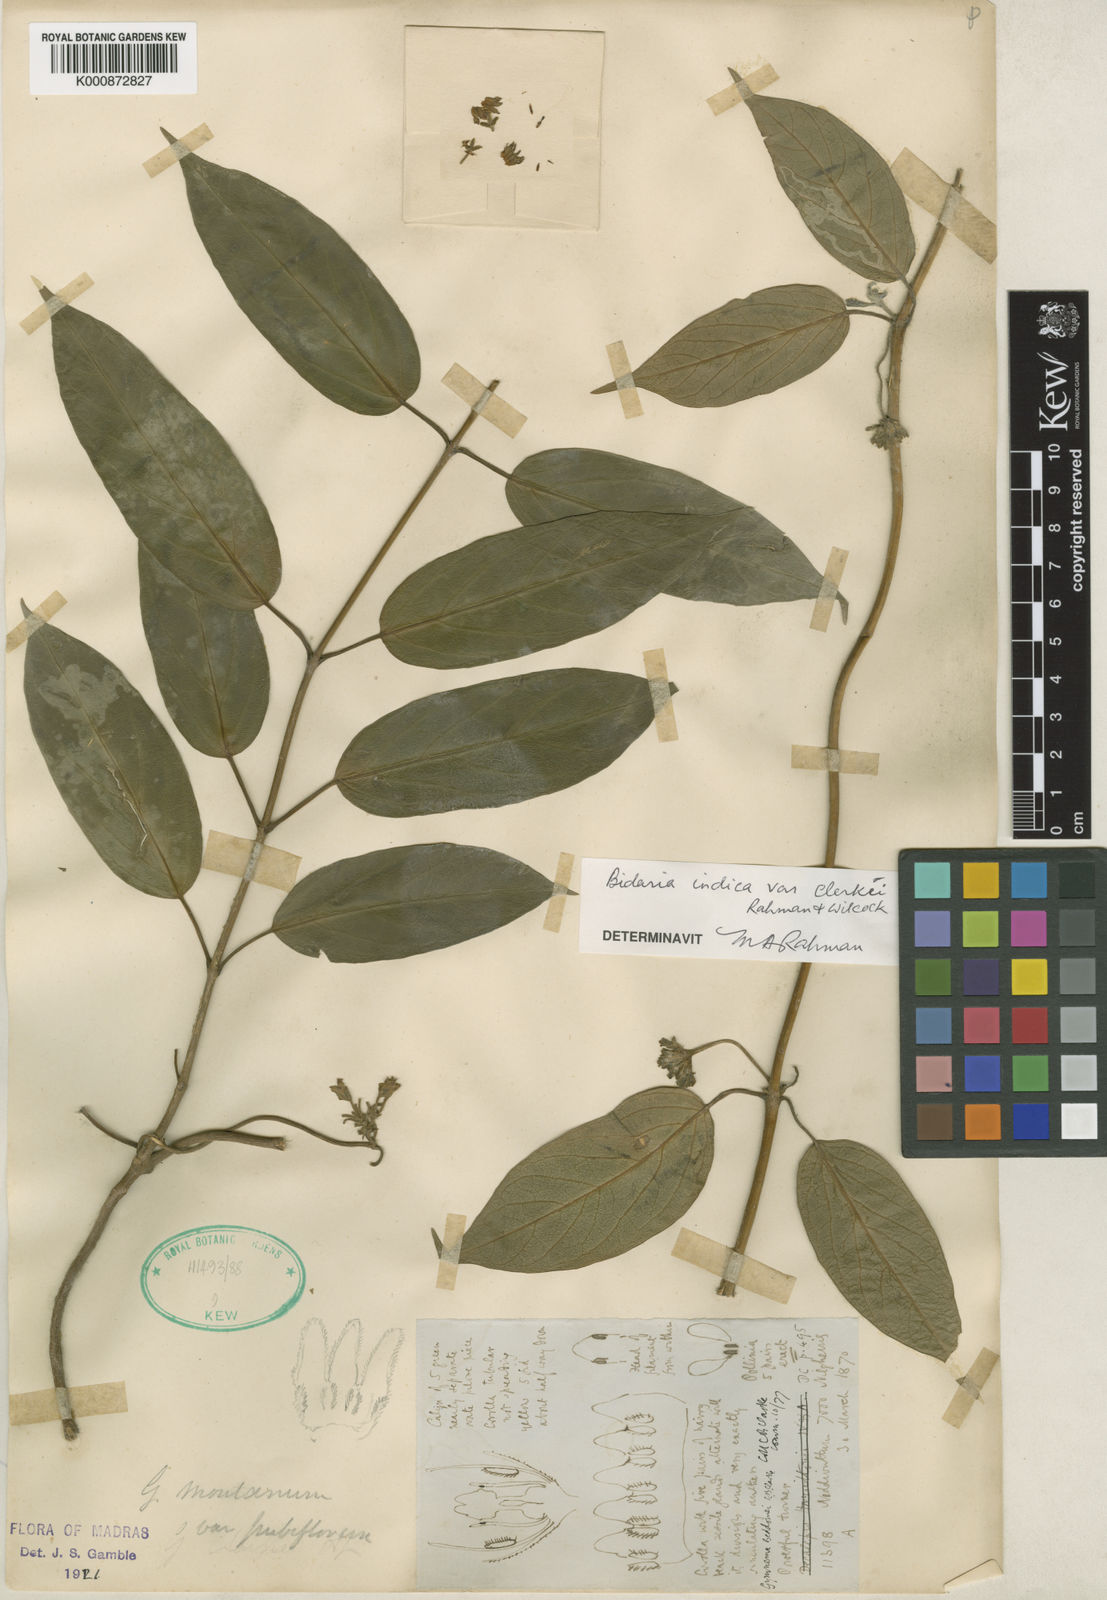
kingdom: Plantae
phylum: Tracheophyta
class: Magnoliopsida
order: Gentianales
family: Apocynaceae
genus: Gymnema
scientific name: Gymnema montanum
